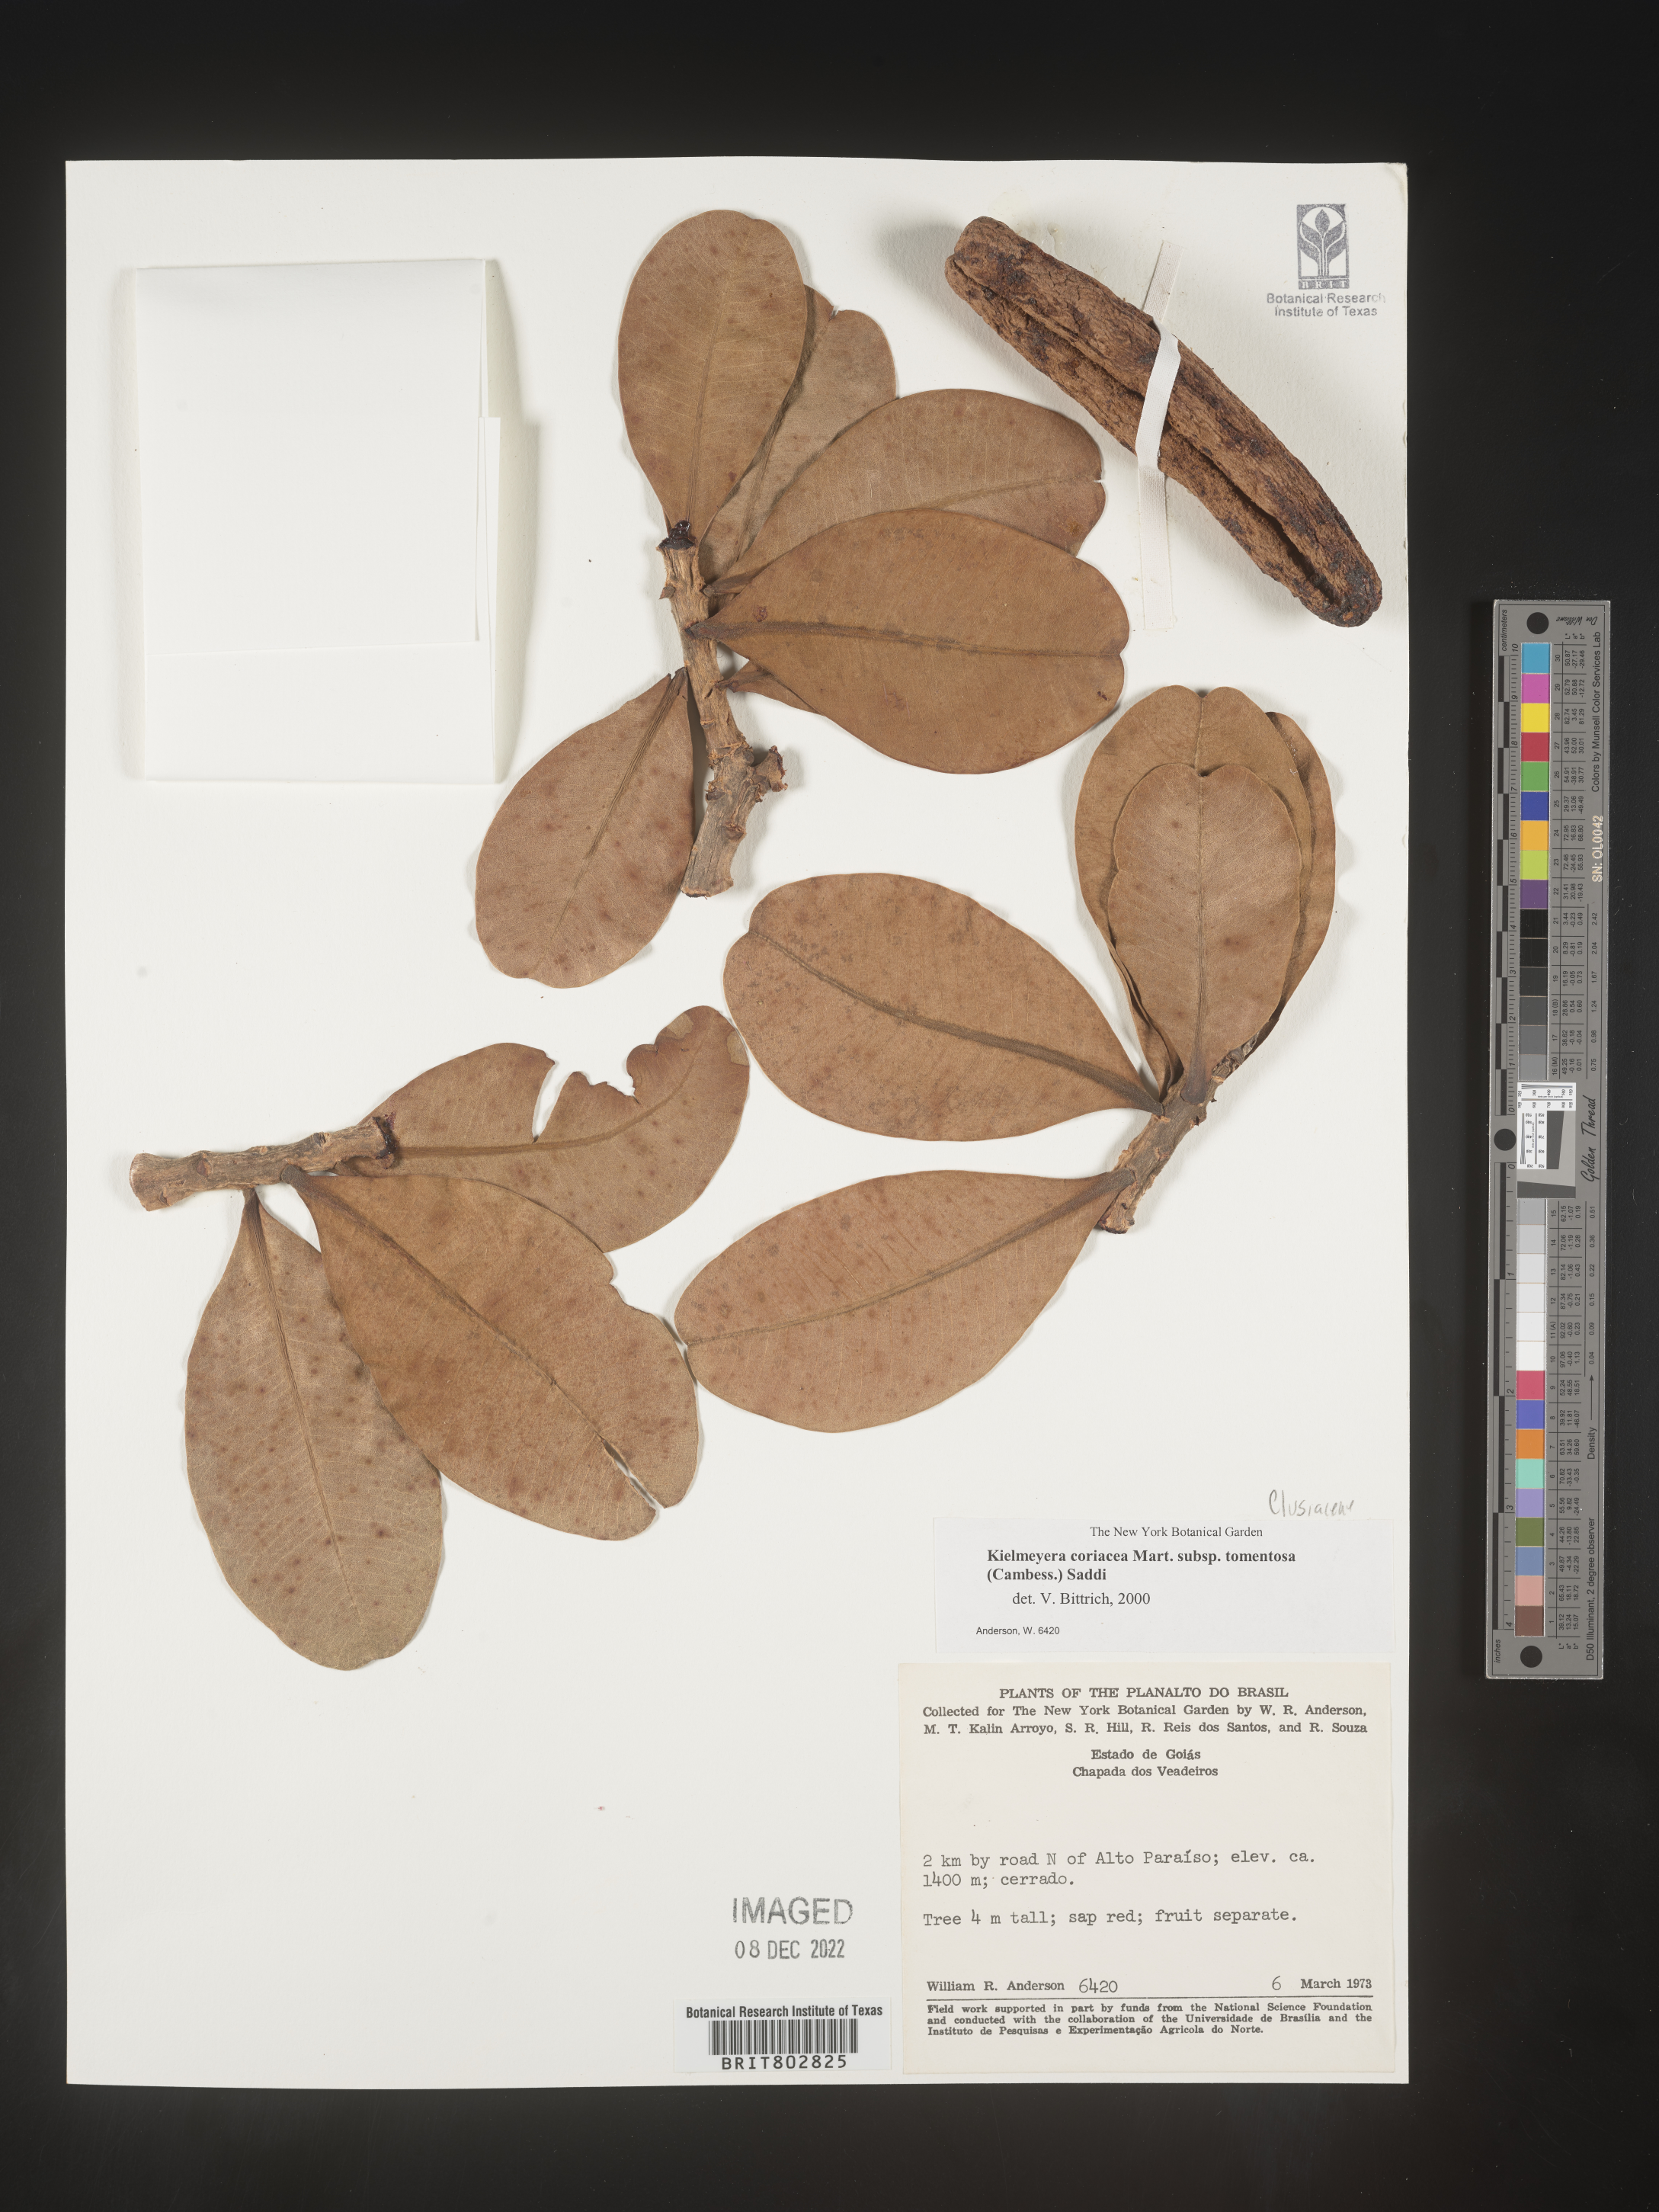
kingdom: Plantae
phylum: Tracheophyta
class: Magnoliopsida
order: Malpighiales
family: Calophyllaceae
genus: Kielmeyera
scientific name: Kielmeyera
